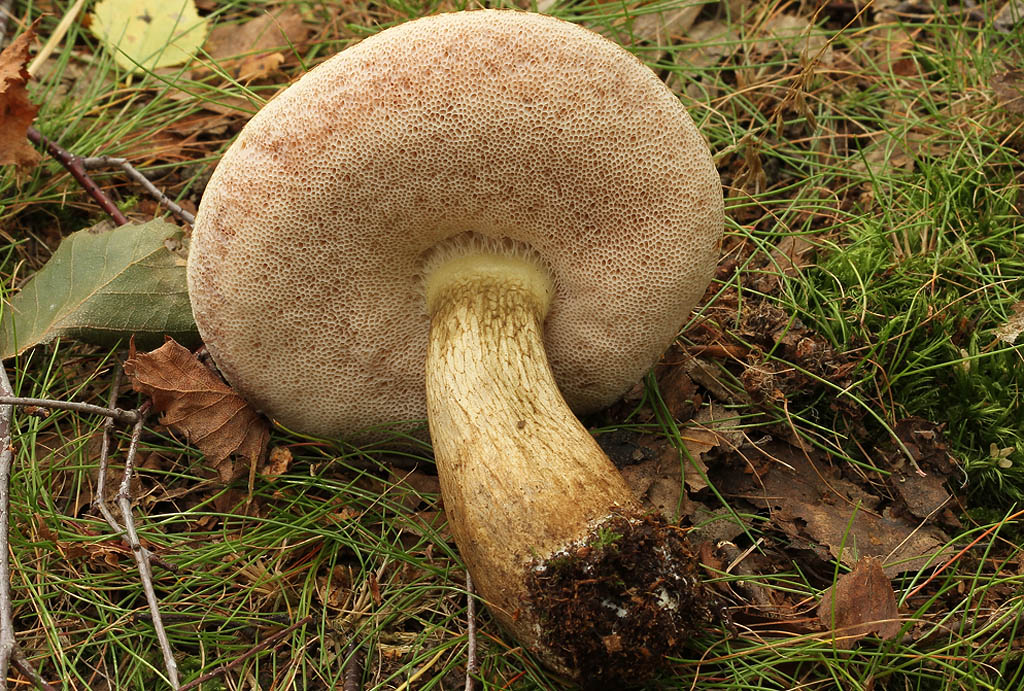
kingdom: Fungi
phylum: Basidiomycota
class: Agaricomycetes
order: Boletales
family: Boletaceae
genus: Tylopilus
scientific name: Tylopilus felleus
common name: galderørhat
